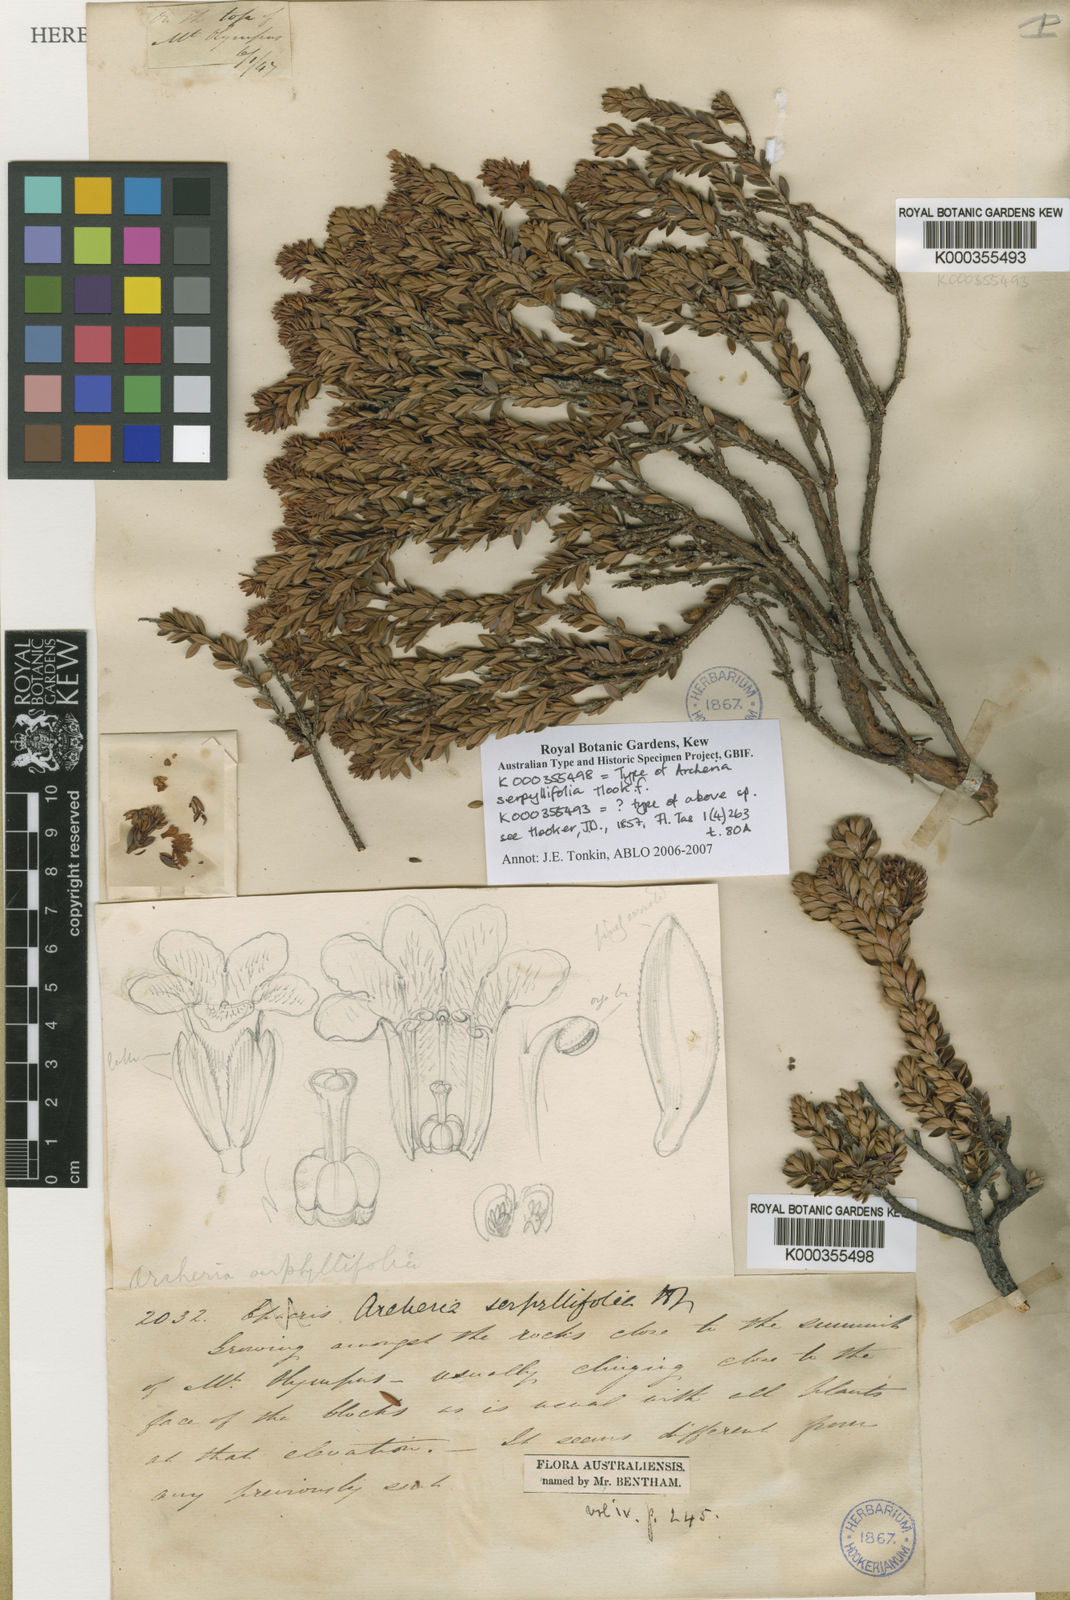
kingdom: Plantae
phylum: Tracheophyta
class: Magnoliopsida
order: Ericales
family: Ericaceae
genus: Archeria
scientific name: Archeria serpyllifolia
